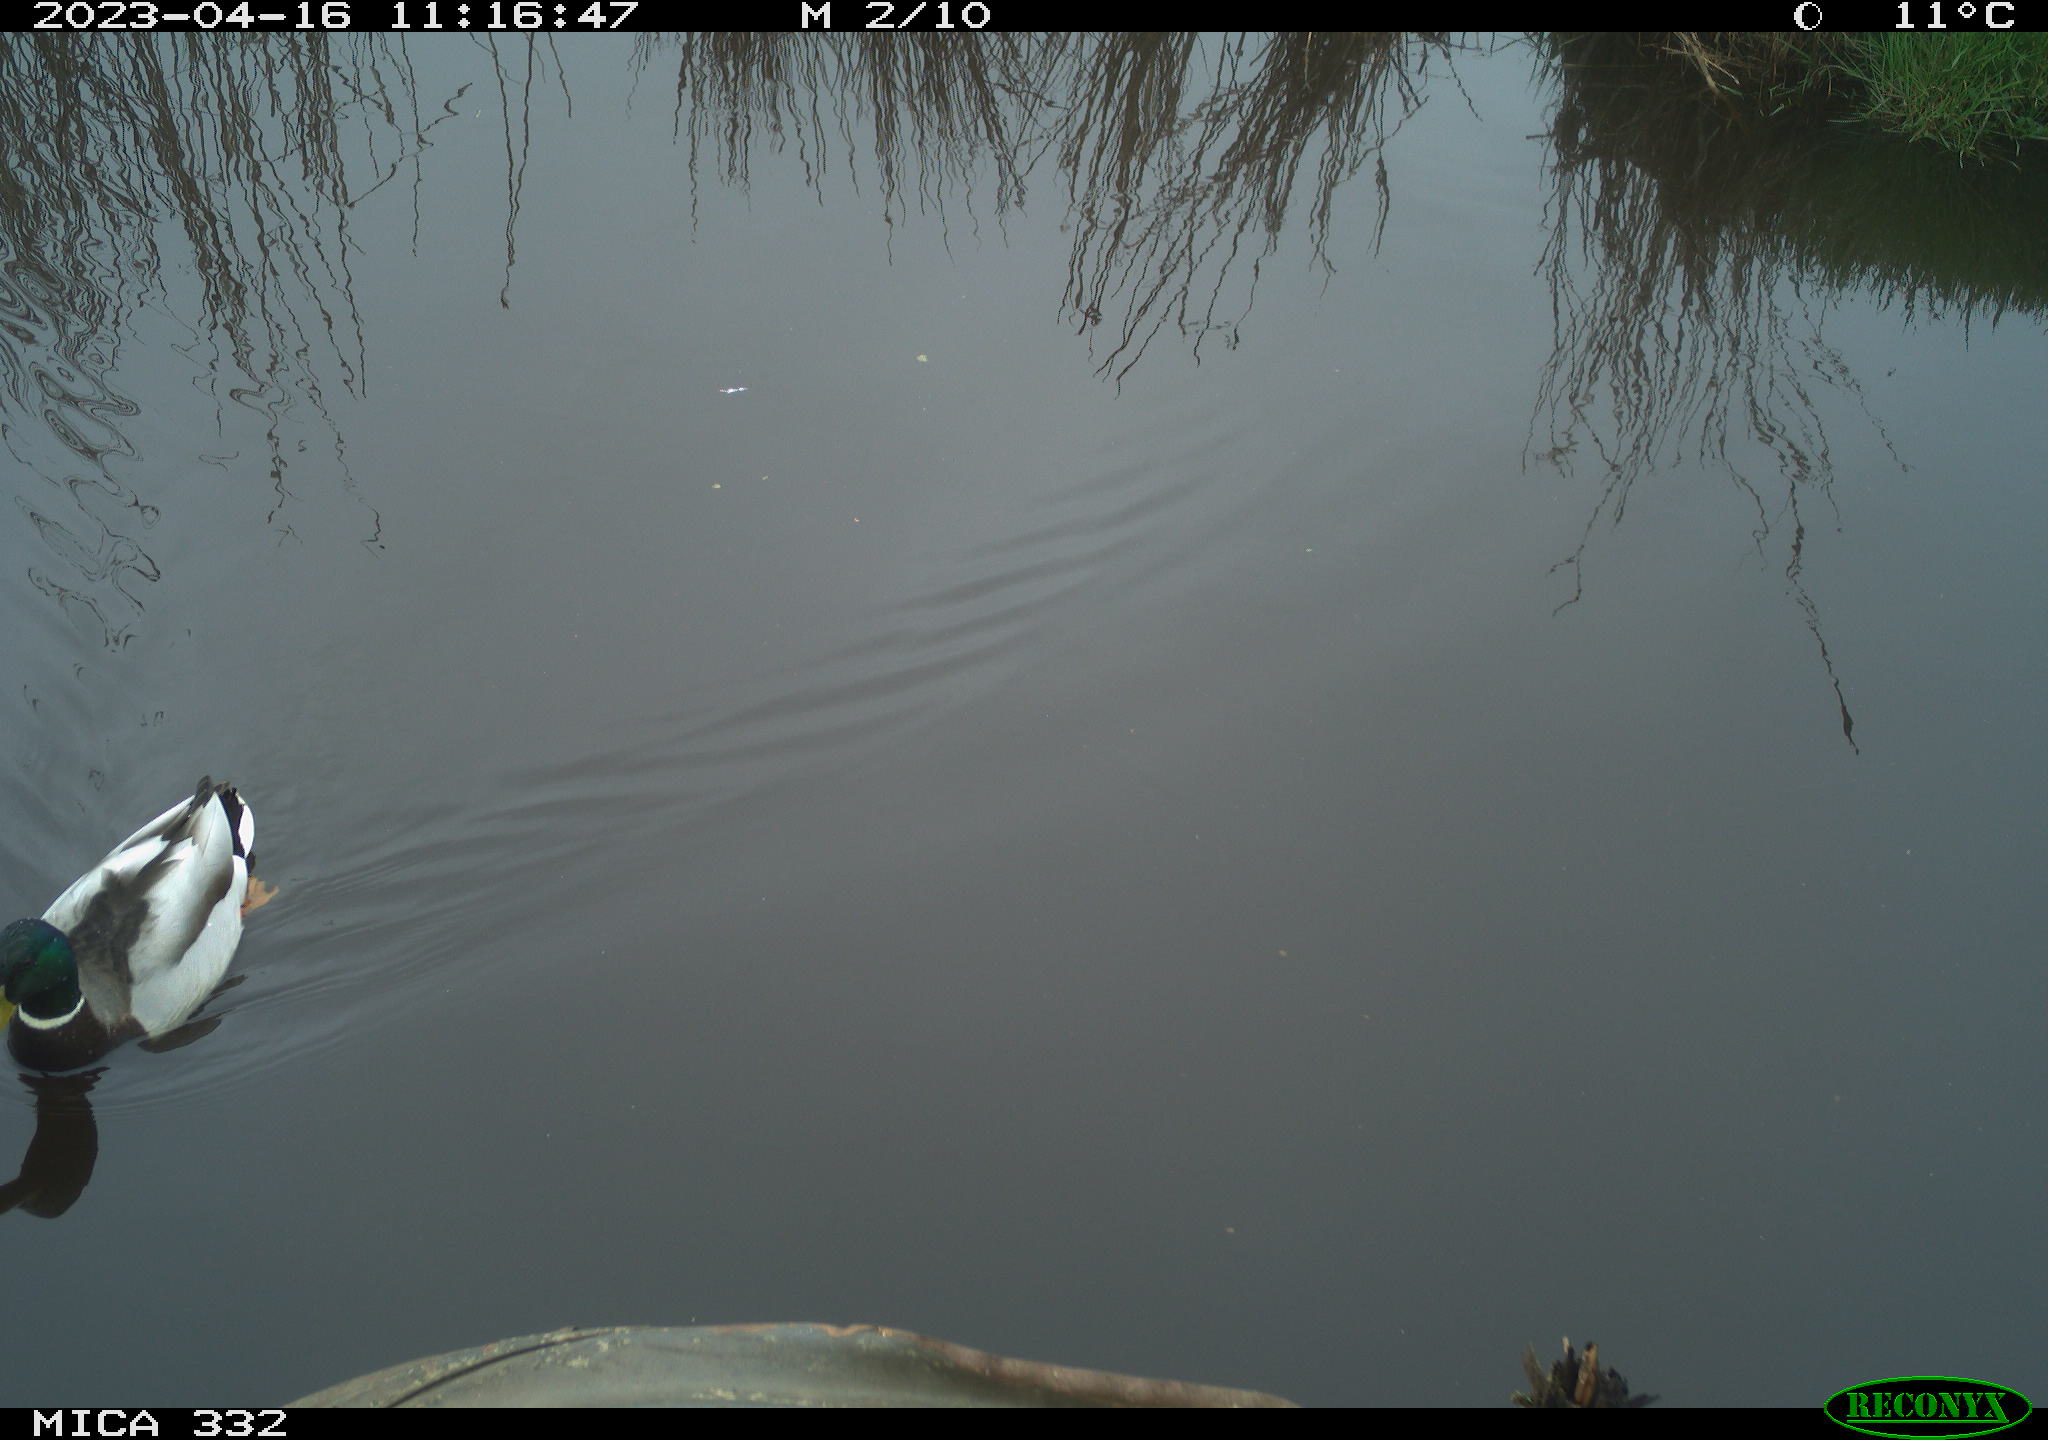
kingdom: Animalia
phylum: Chordata
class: Aves
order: Anseriformes
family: Anatidae
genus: Anas
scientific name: Anas
